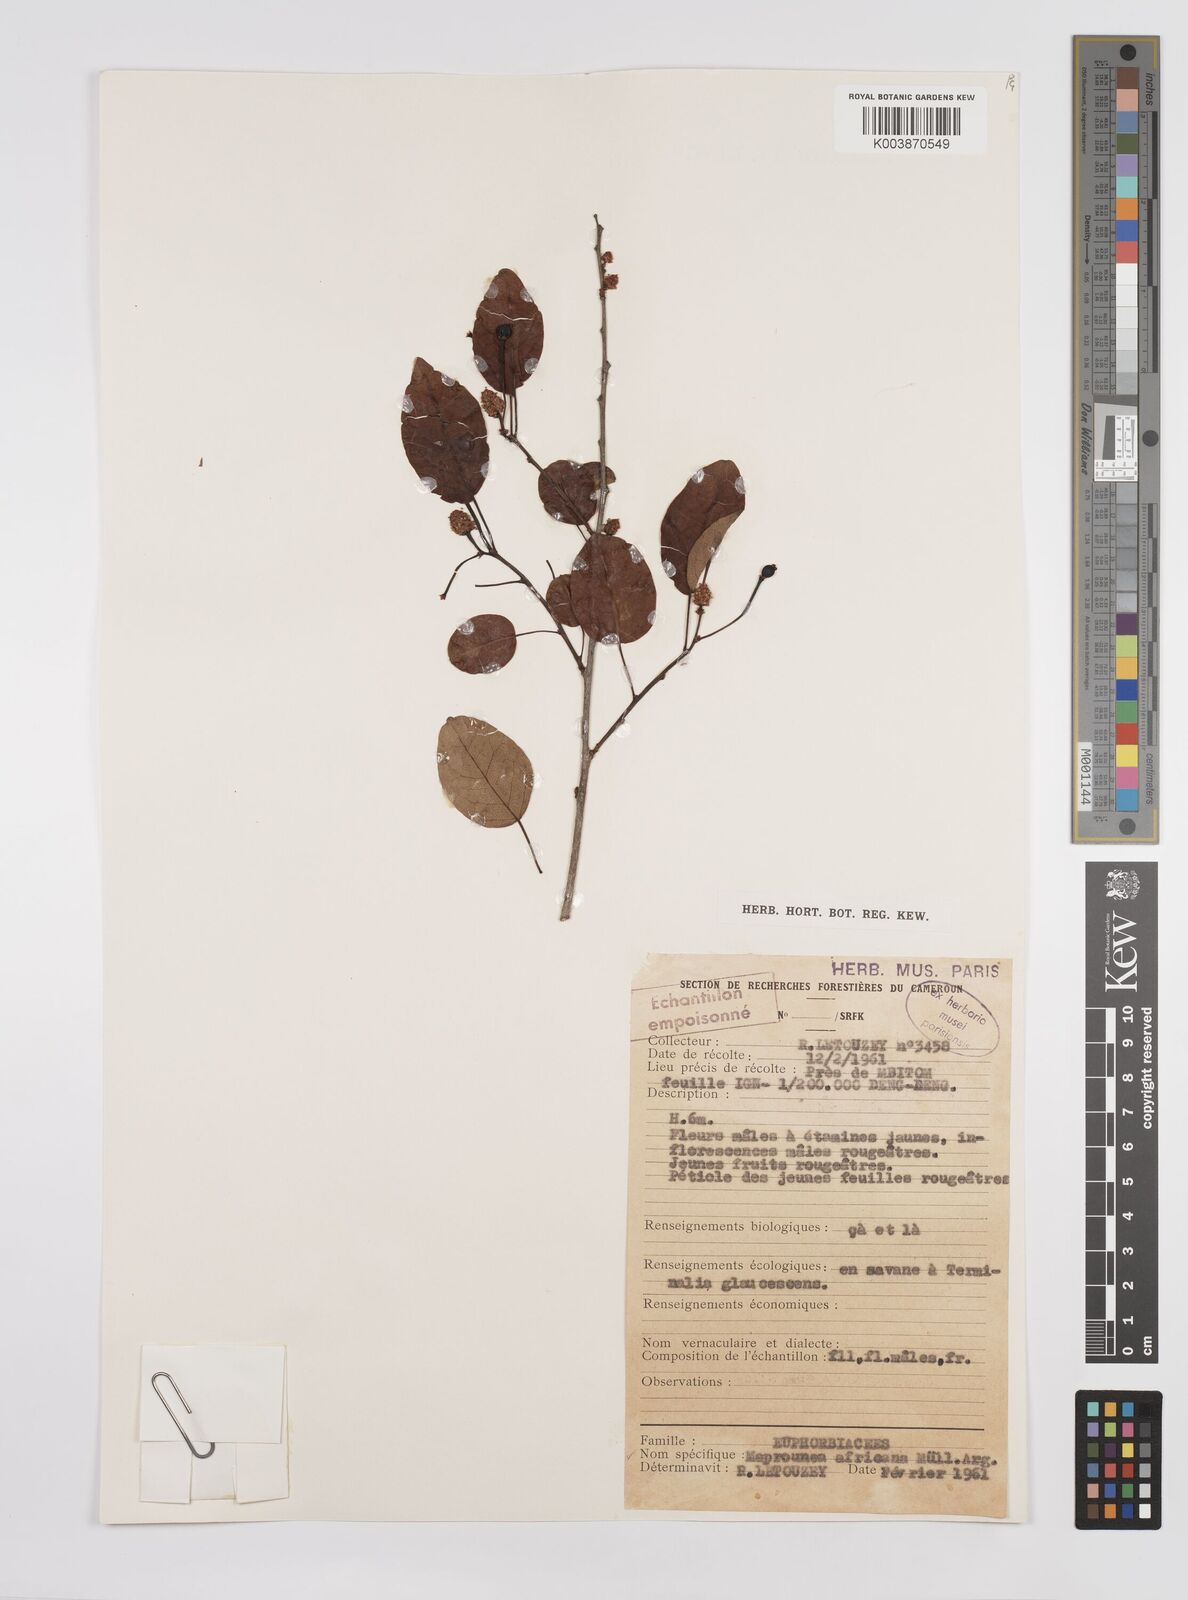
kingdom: Plantae
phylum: Tracheophyta
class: Magnoliopsida
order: Malpighiales
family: Euphorbiaceae
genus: Maprounea
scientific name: Maprounea africana
